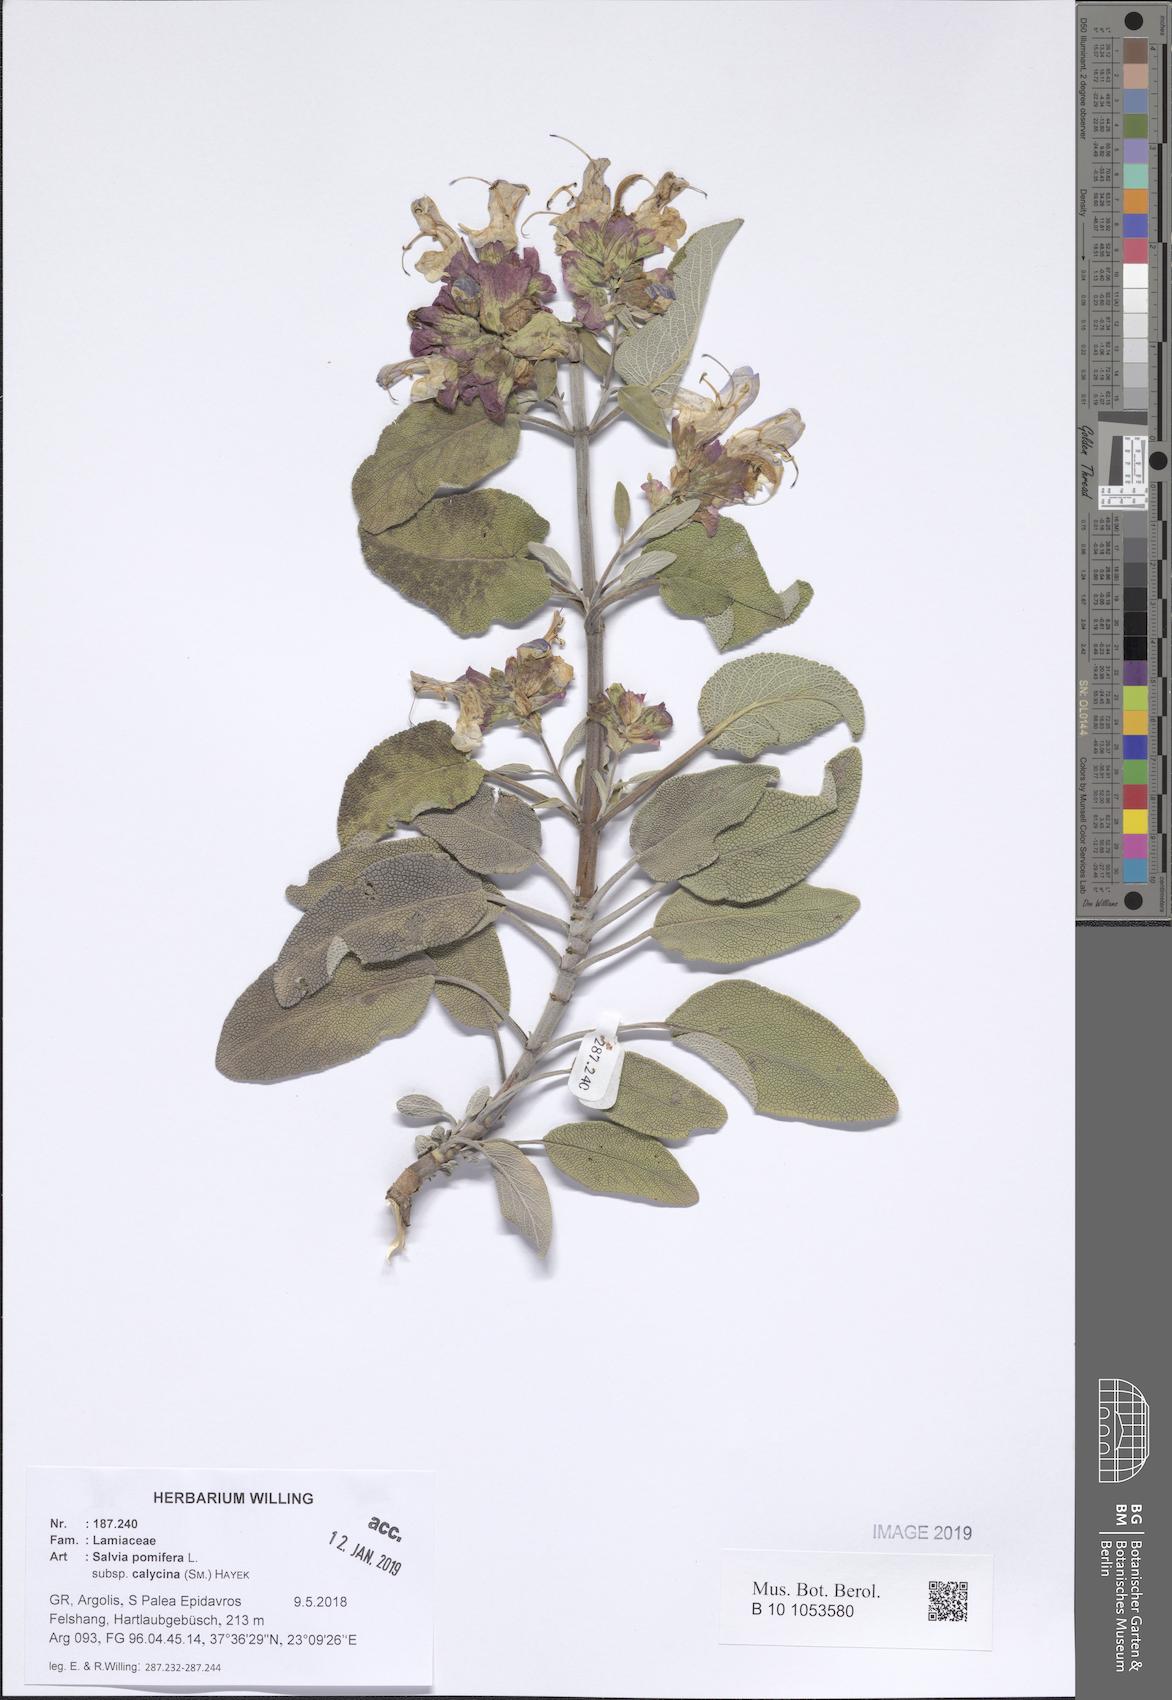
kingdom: Plantae
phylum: Tracheophyta
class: Magnoliopsida
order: Lamiales
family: Lamiaceae
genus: Salvia
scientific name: Salvia pomifera
